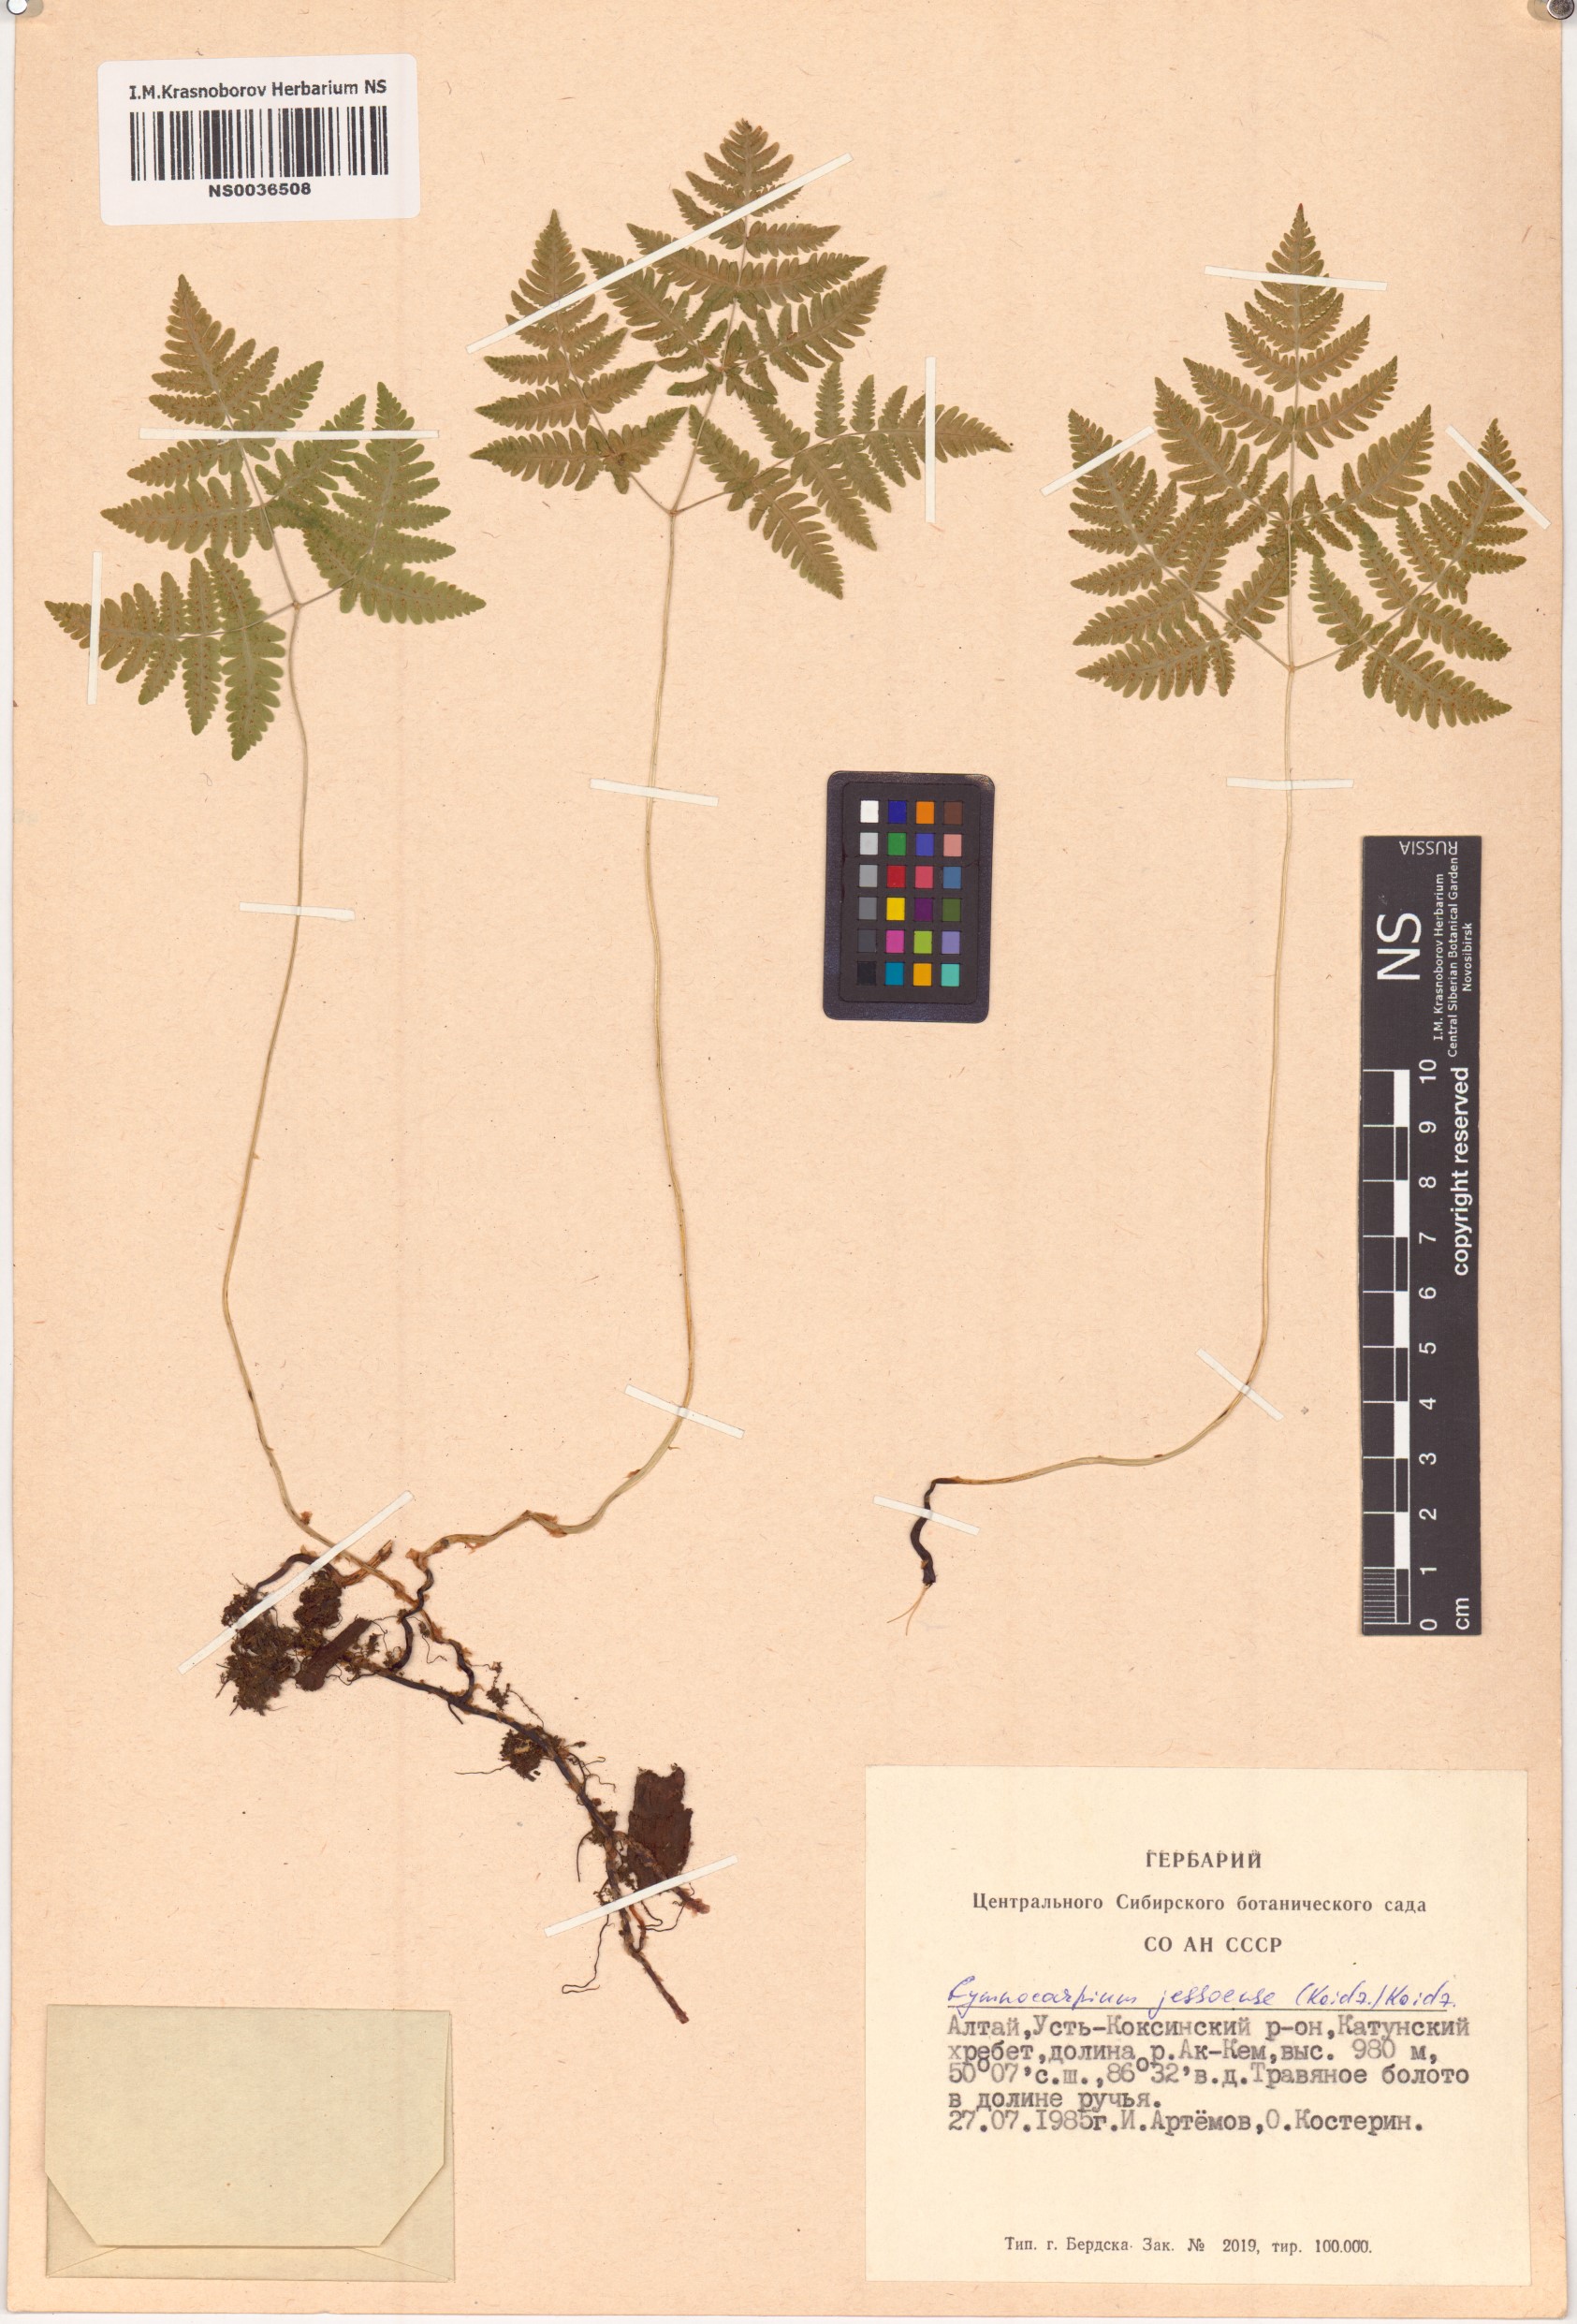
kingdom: Plantae
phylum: Tracheophyta
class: Polypodiopsida
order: Polypodiales
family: Cystopteridaceae
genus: Gymnocarpium
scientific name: Gymnocarpium jessoense
